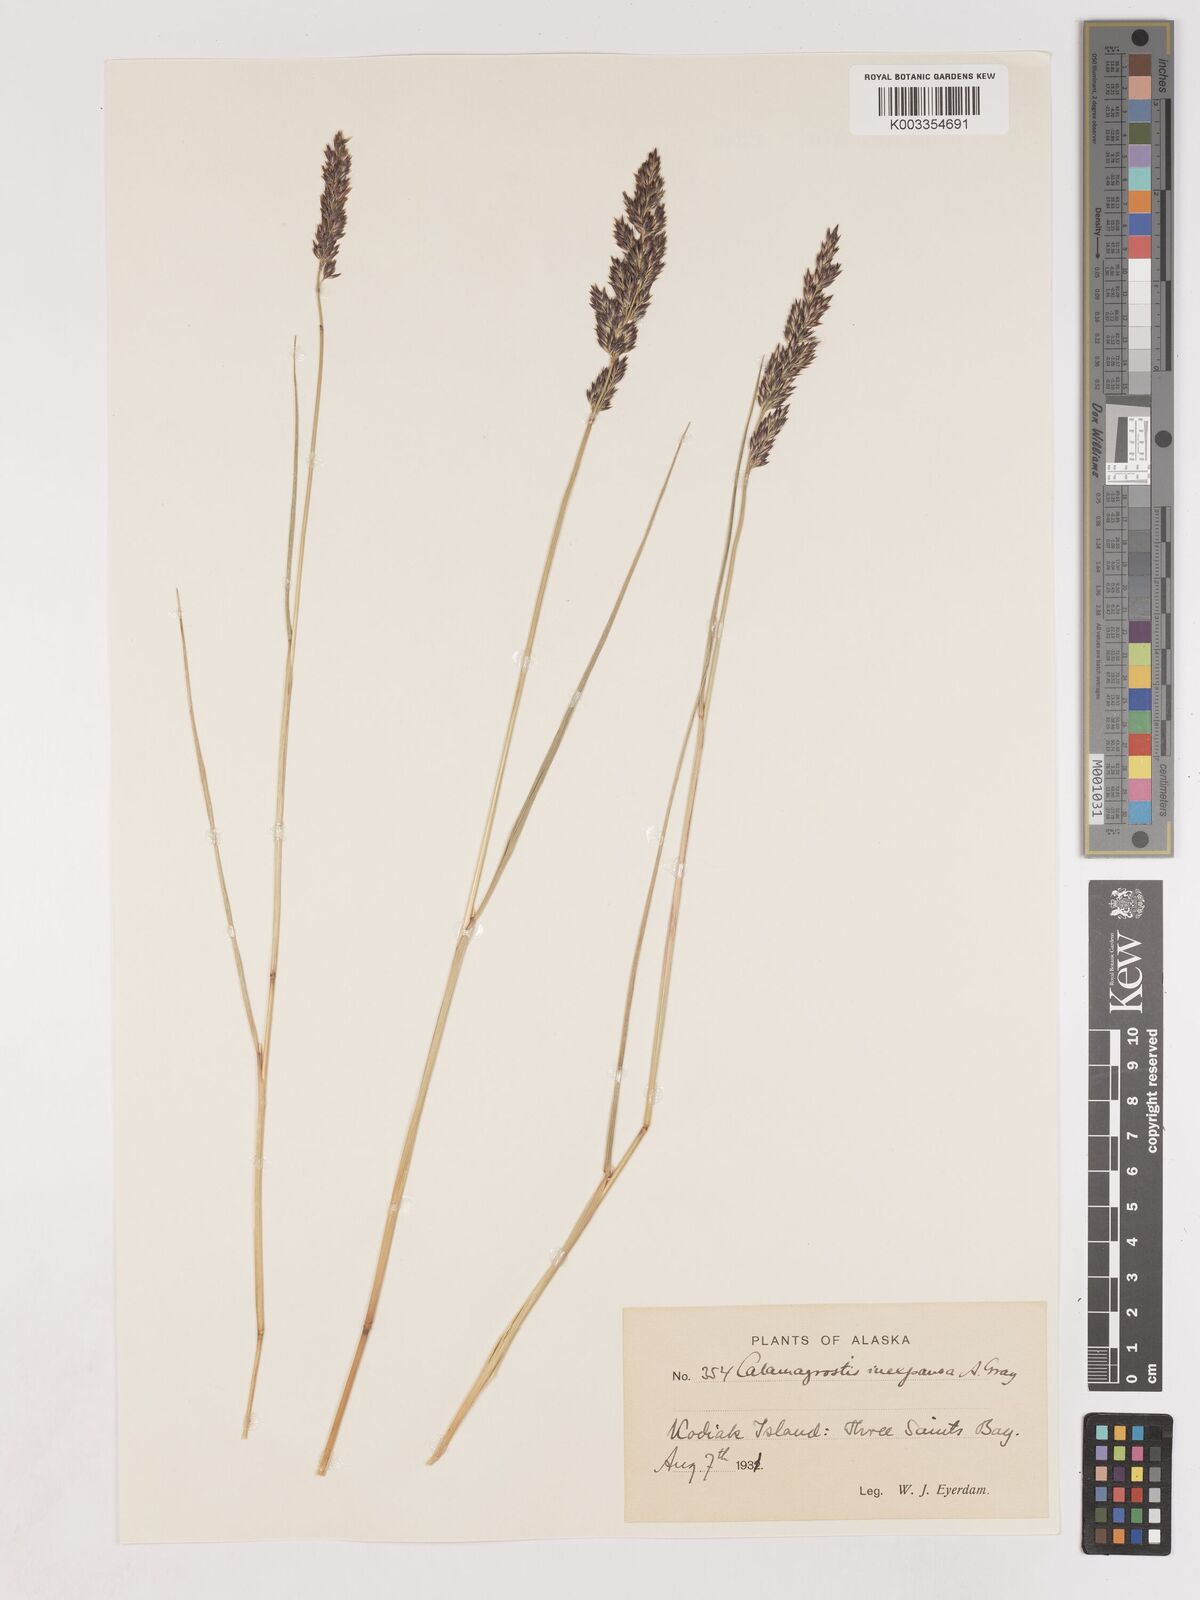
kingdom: Plantae
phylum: Tracheophyta
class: Liliopsida
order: Poales
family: Poaceae
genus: Cinnagrostis
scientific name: Cinnagrostis recta
